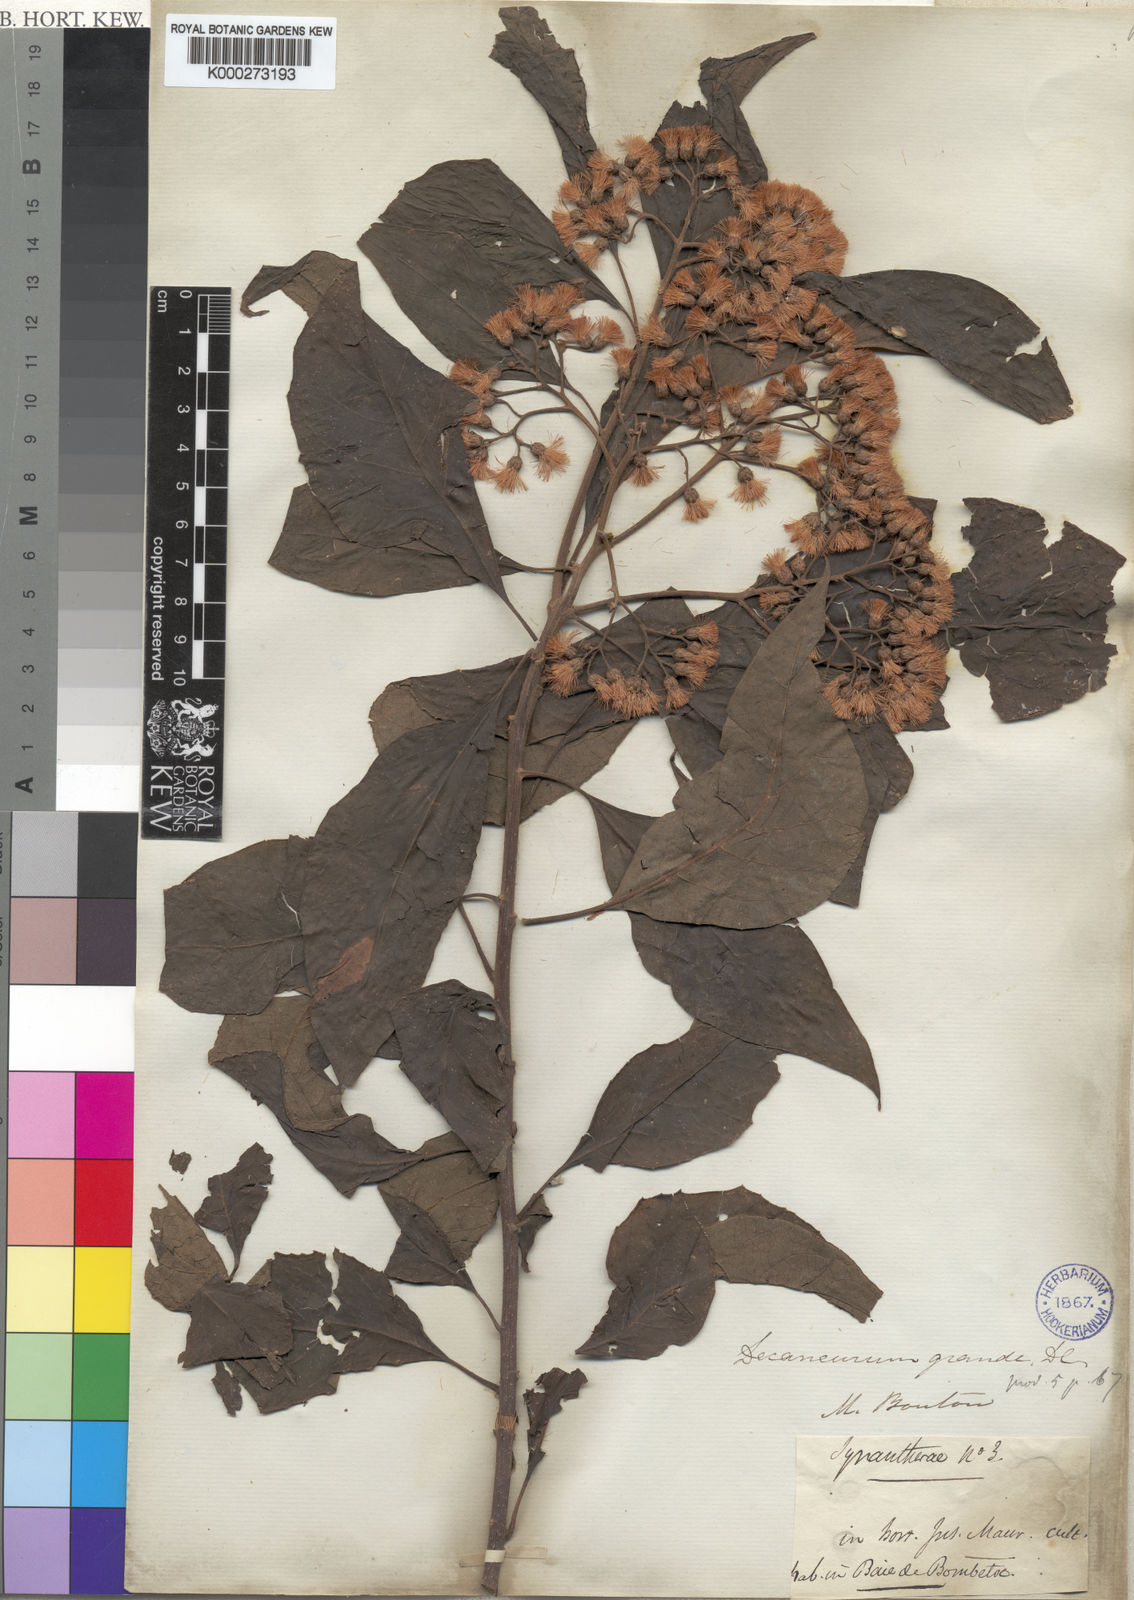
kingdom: Plantae
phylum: Tracheophyta
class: Magnoliopsida
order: Asterales
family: Asteraceae
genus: Vernonia
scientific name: Vernonia
